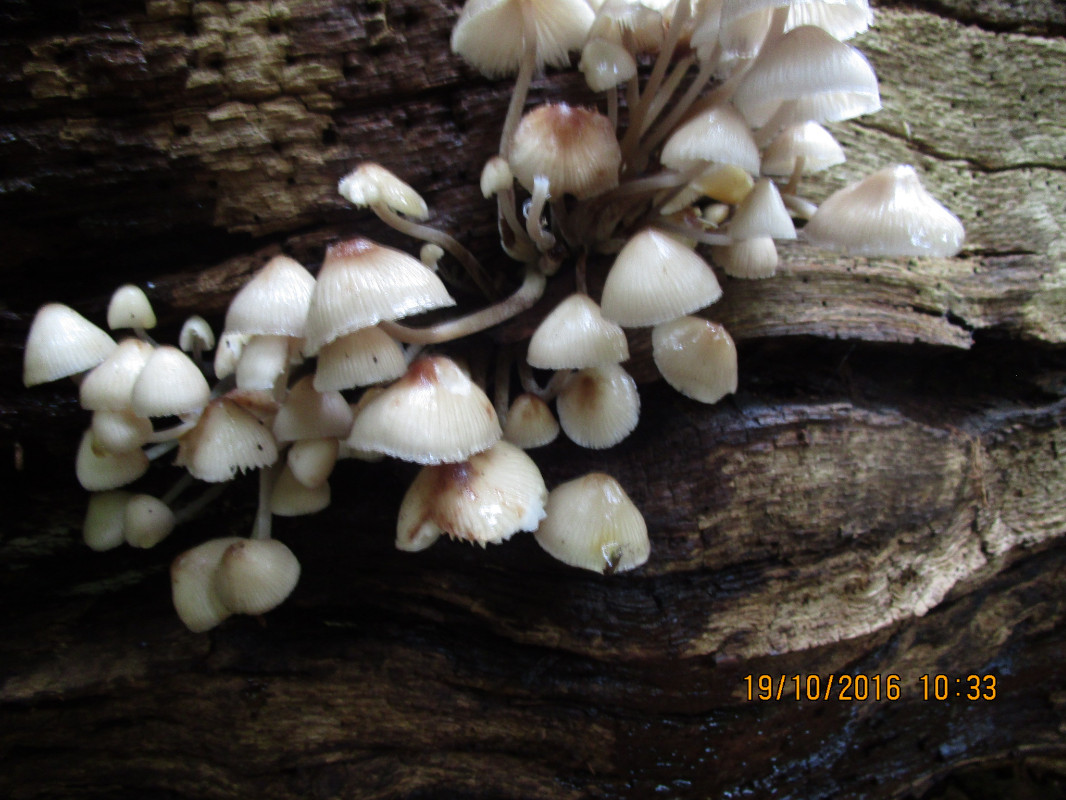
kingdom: Fungi
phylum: Basidiomycota
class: Agaricomycetes
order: Agaricales
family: Mycenaceae
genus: Mycena
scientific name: Mycena galericulata
